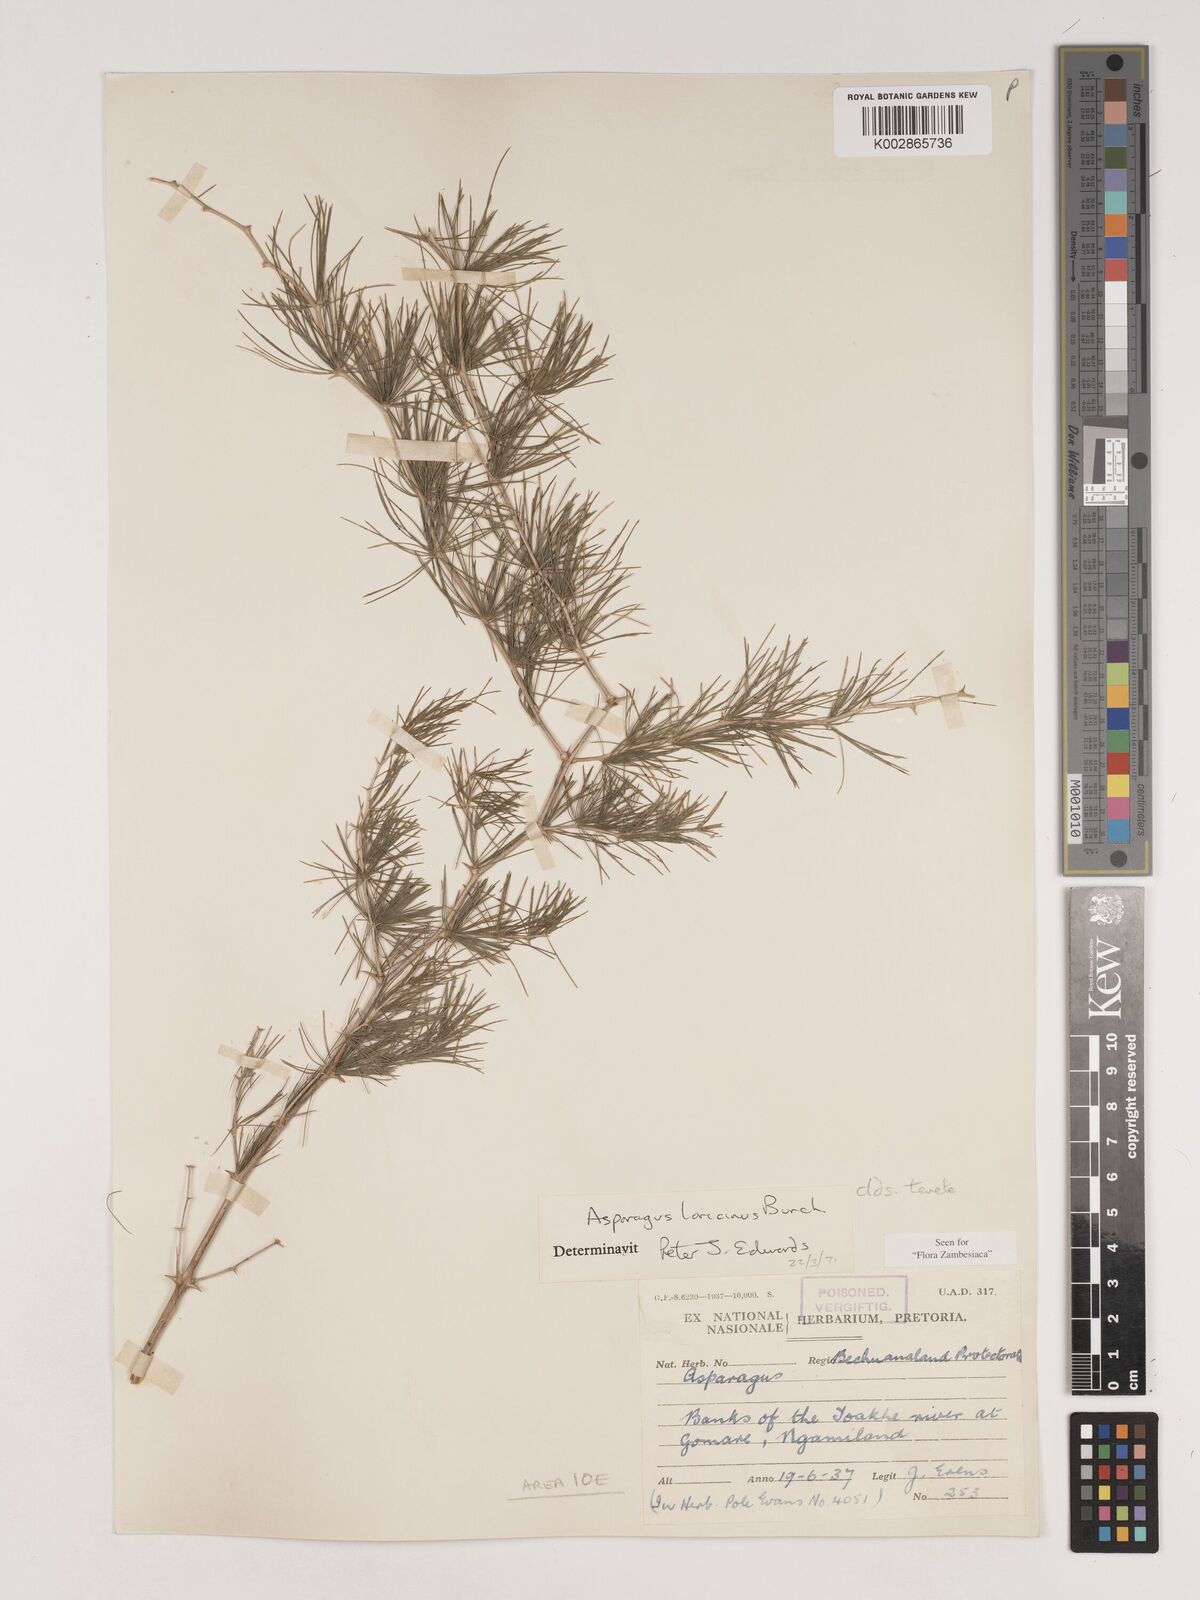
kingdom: Plantae
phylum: Tracheophyta
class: Liliopsida
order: Asparagales
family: Asparagaceae
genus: Asparagus
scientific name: Asparagus laricinus
